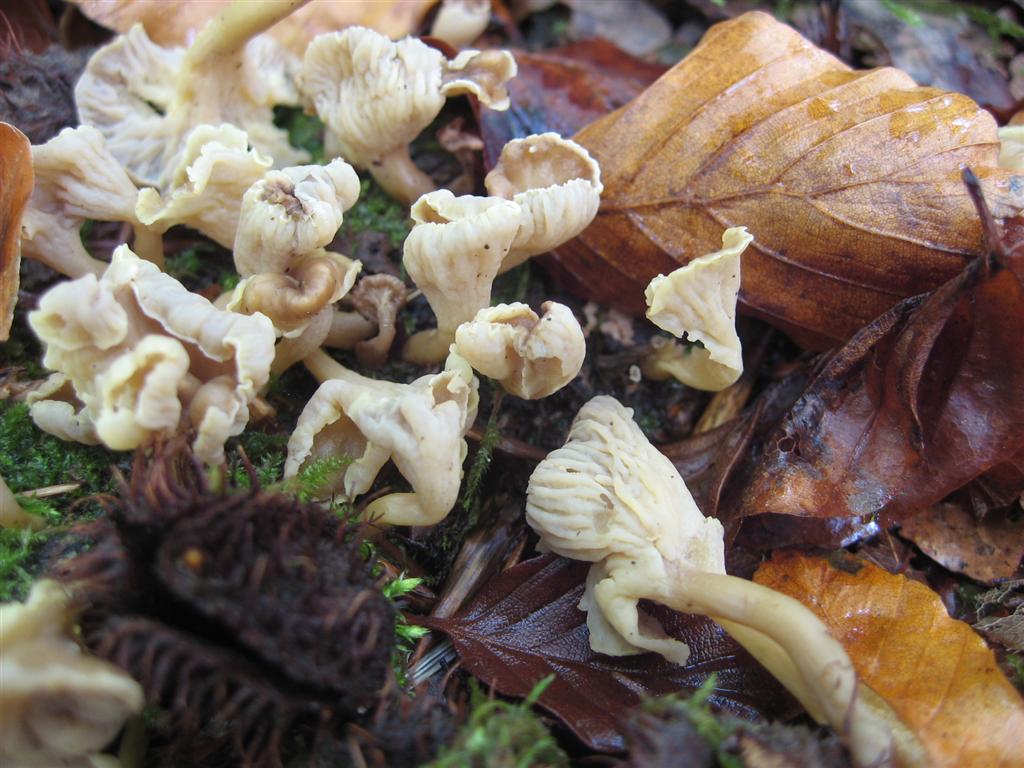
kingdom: Fungi
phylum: Basidiomycota
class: Agaricomycetes
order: Cantharellales
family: Hydnaceae
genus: Craterellus
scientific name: Craterellus undulatus
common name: liden kantarel
